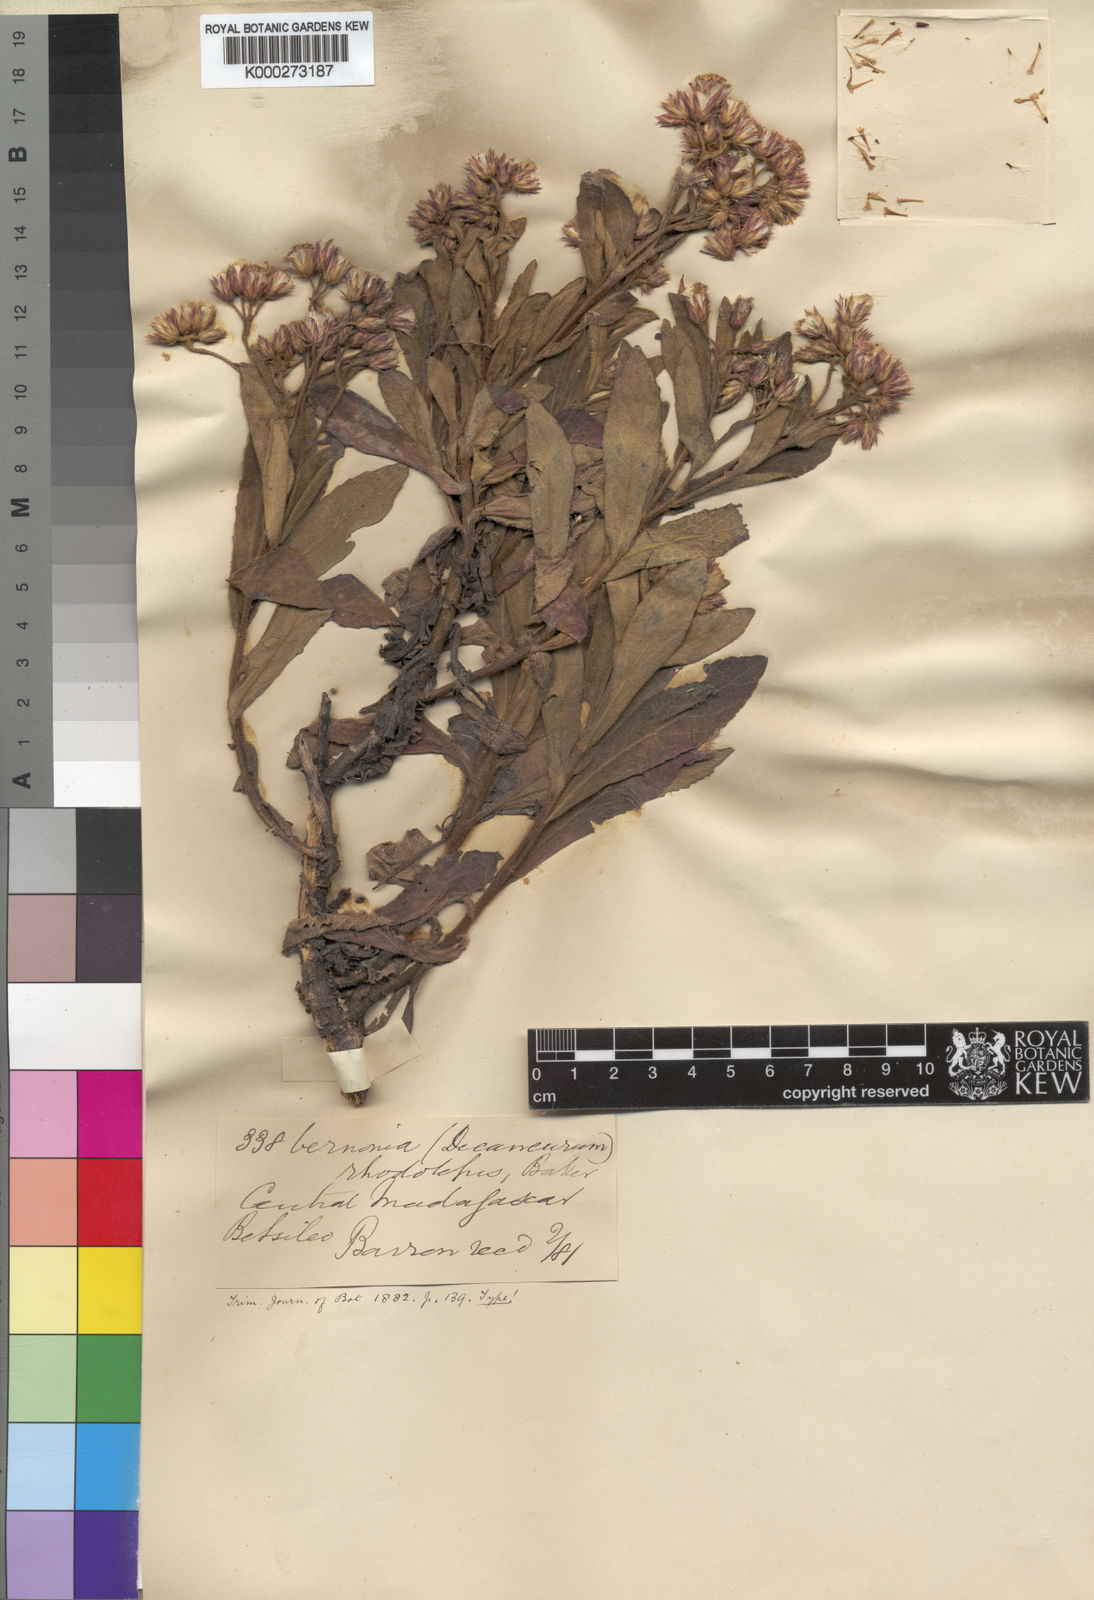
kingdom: Plantae
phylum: Tracheophyta
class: Magnoliopsida
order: Asterales
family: Asteraceae
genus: Bechium
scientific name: Bechium rhodolepis
